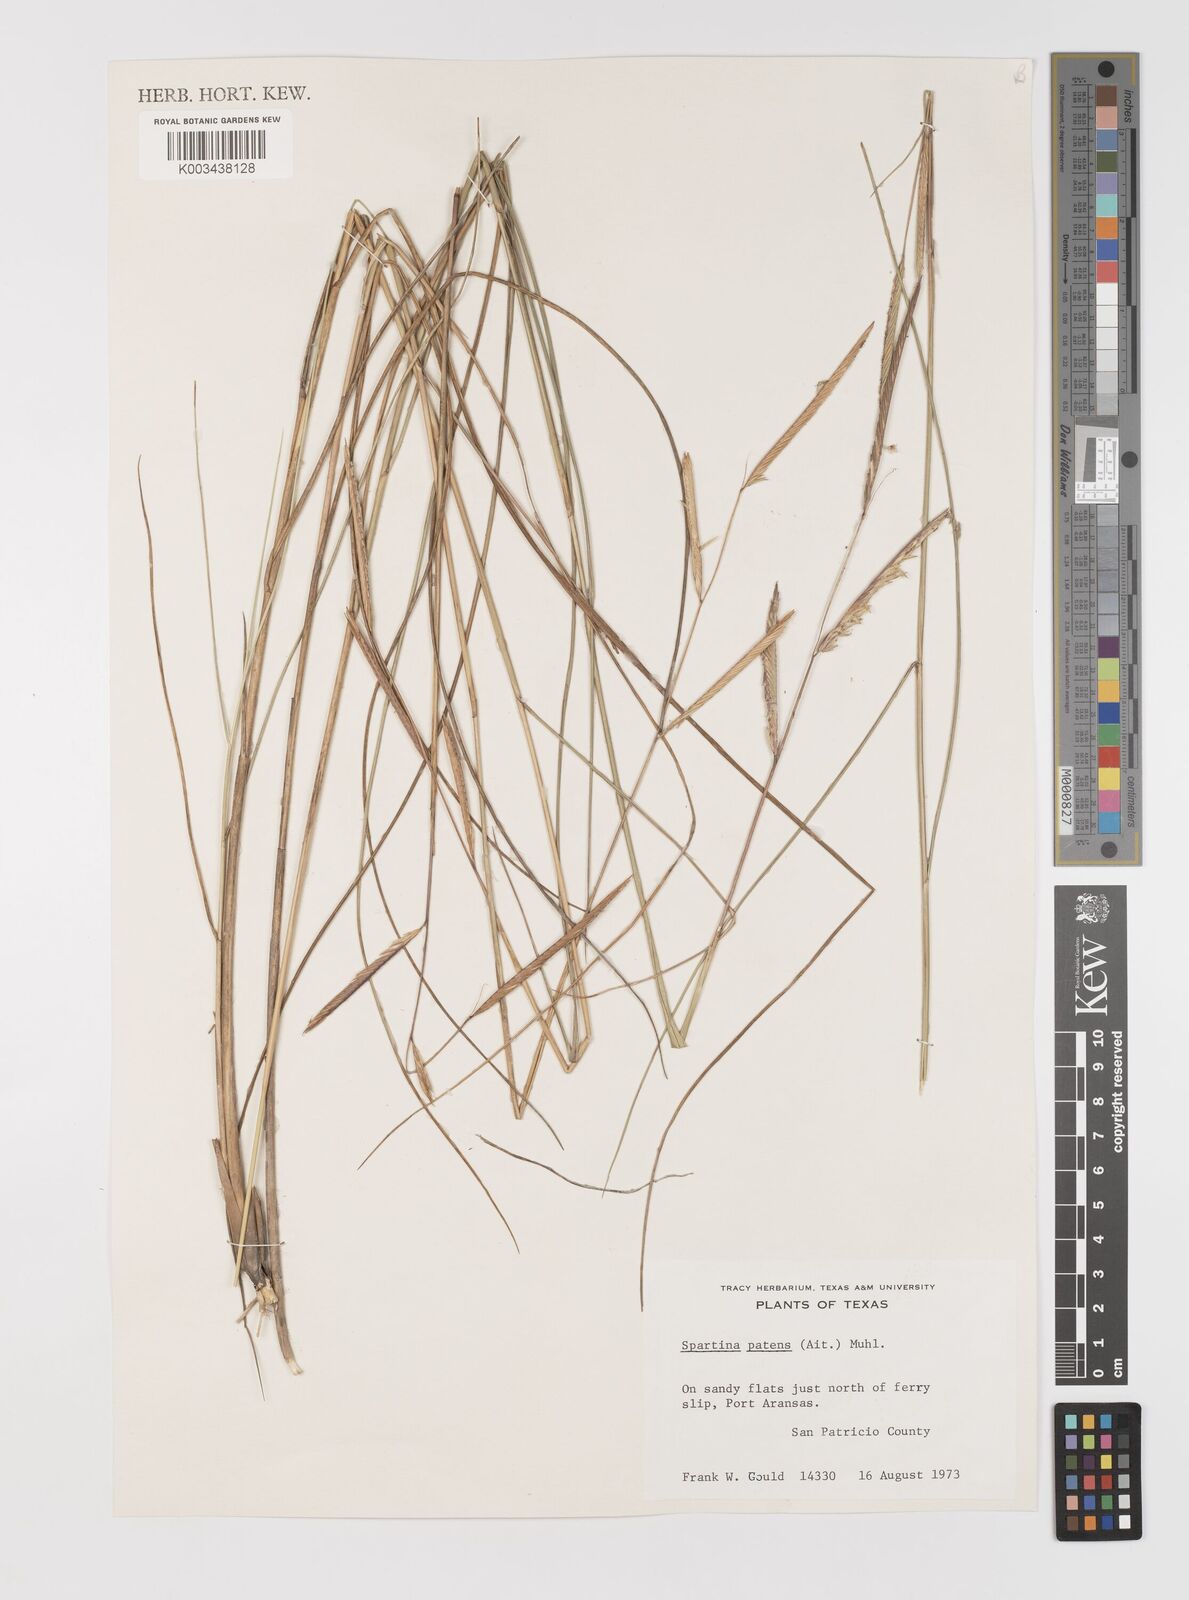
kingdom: Plantae
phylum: Tracheophyta
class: Liliopsida
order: Poales
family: Poaceae
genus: Sporobolus
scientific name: Sporobolus pumilus
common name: Highwater grass
